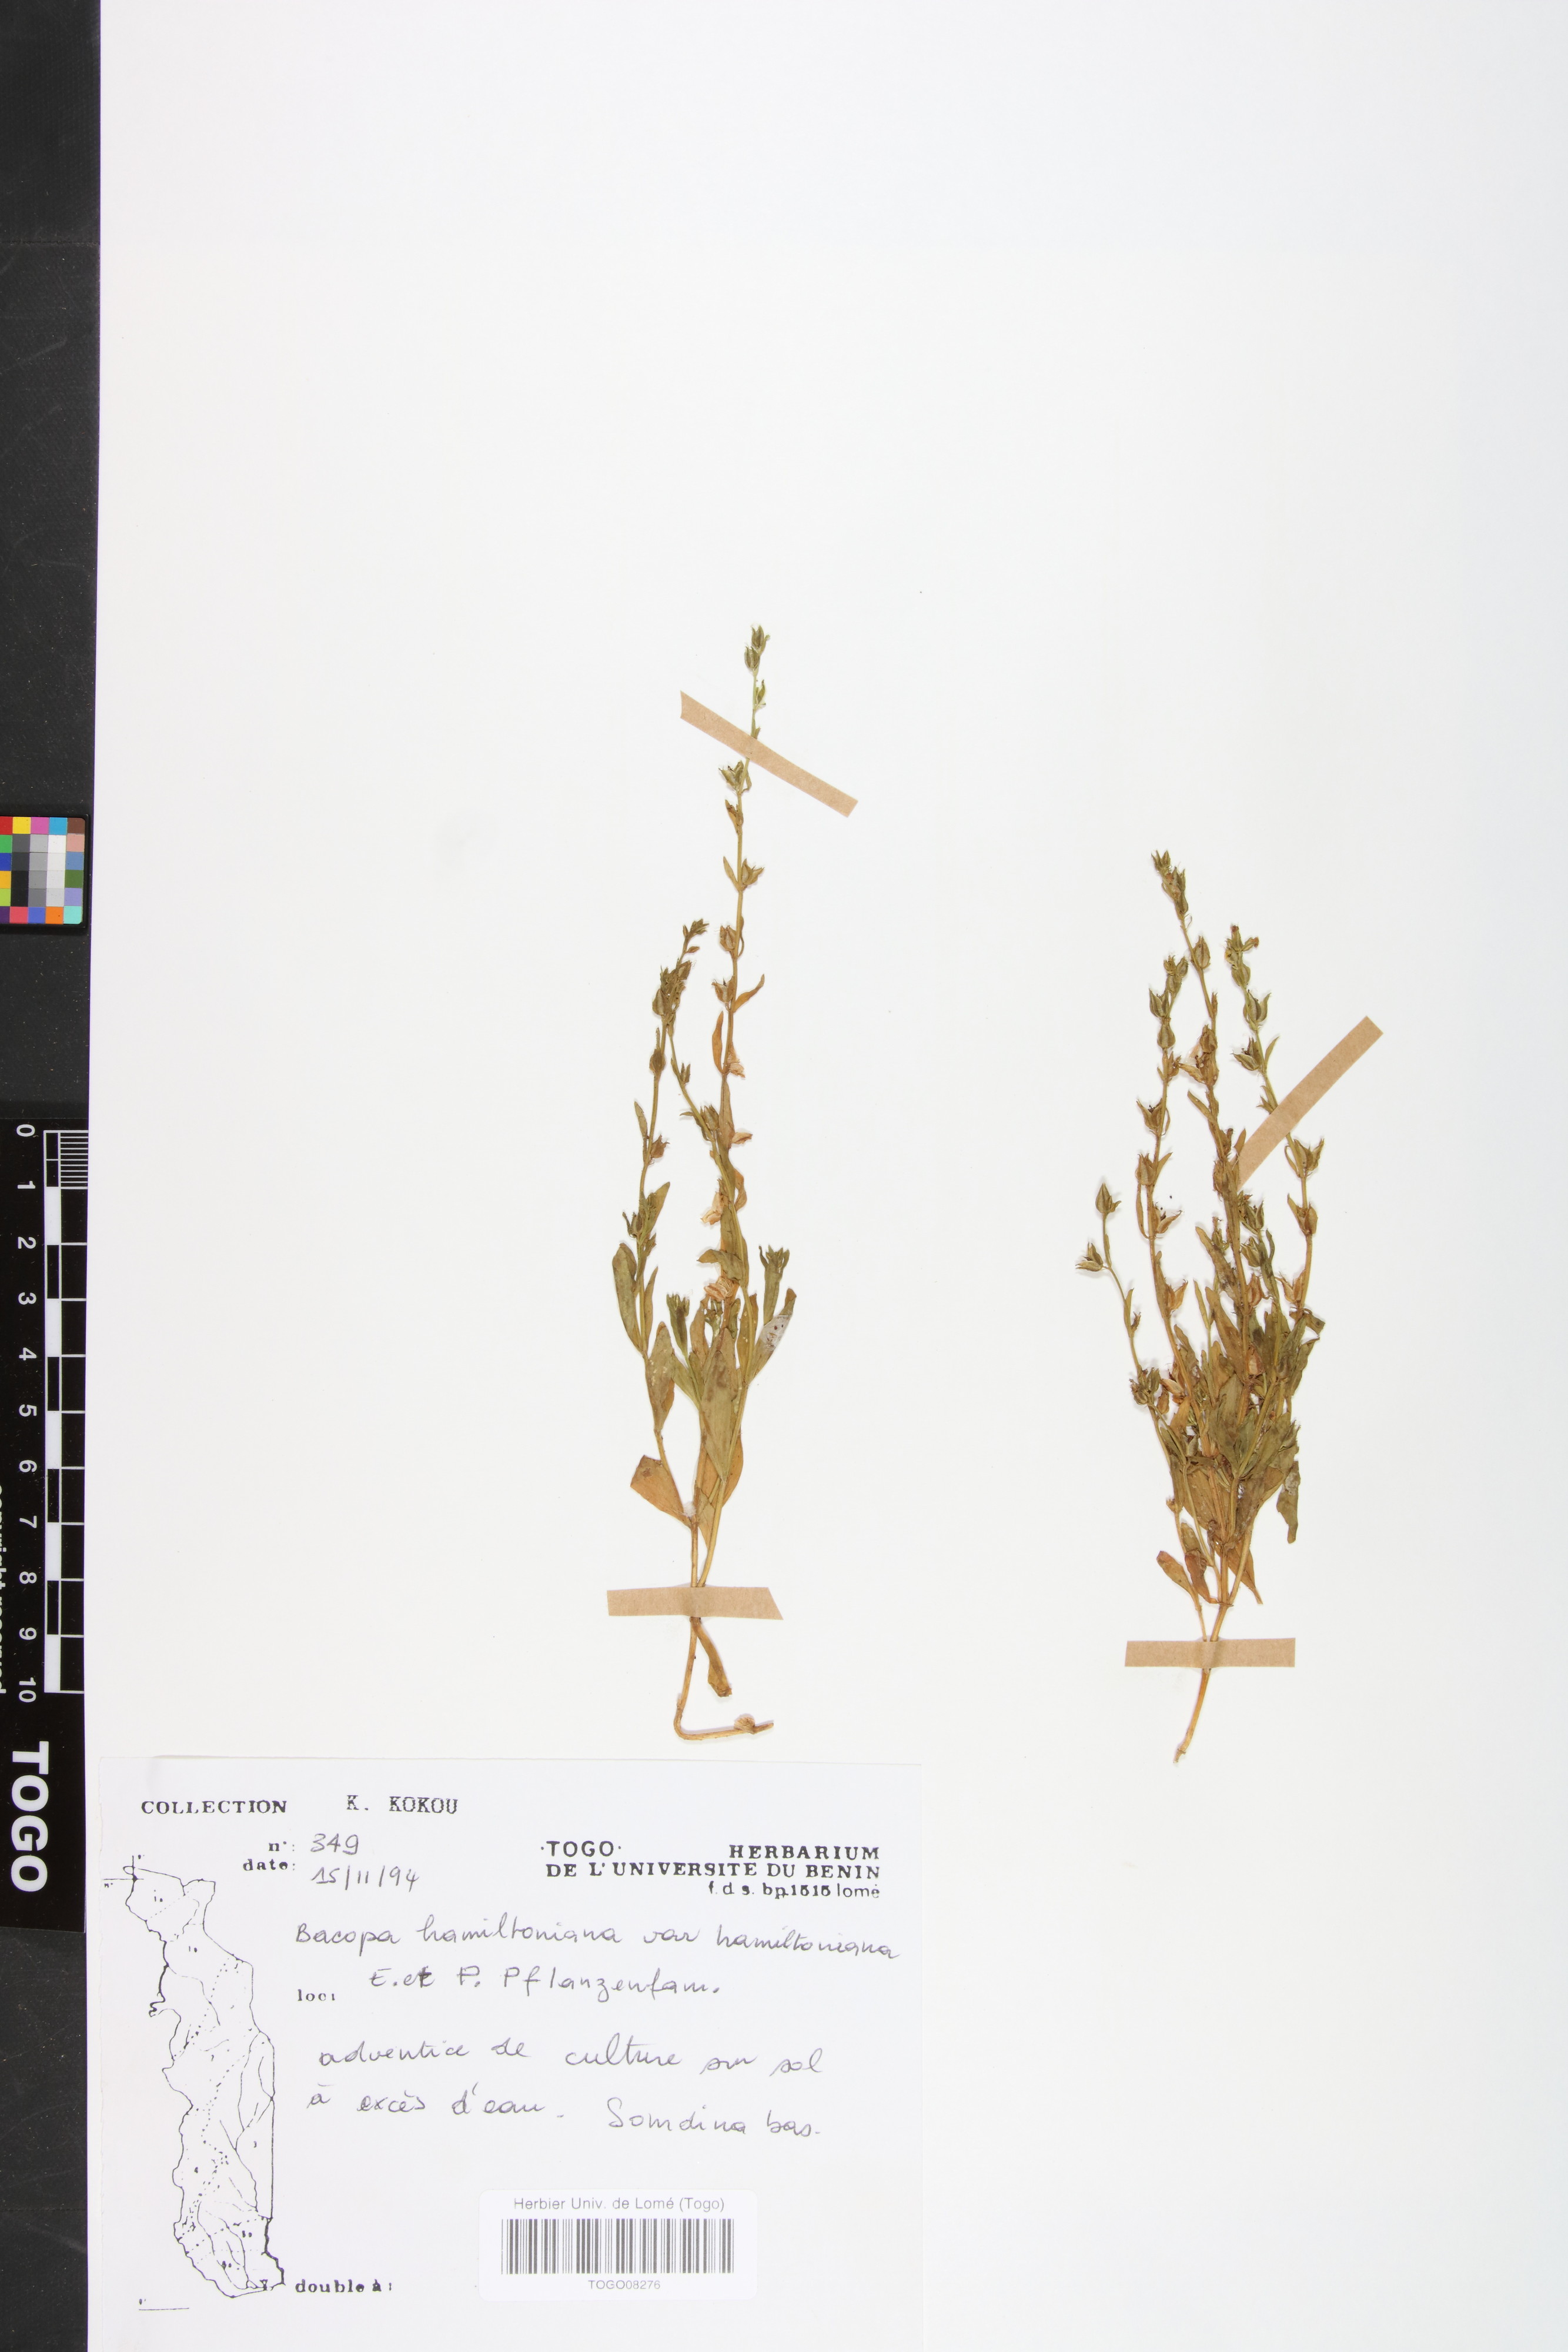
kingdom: Plantae
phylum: Tracheophyta
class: Magnoliopsida
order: Lamiales
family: Plantaginaceae
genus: Bacopa
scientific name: Bacopa hamiltoniana
